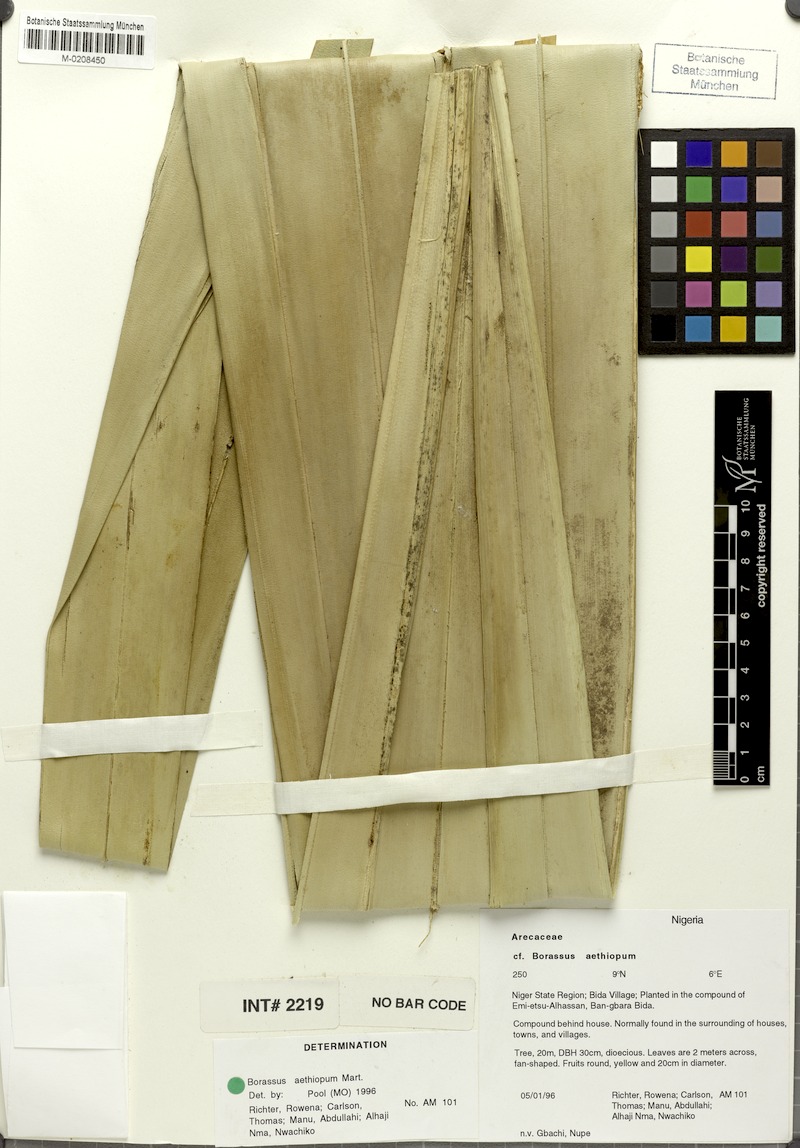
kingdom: Plantae
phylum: Tracheophyta
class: Liliopsida
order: Arecales
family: Arecaceae
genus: Borassus
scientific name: Borassus aethiopum
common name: Elephant palm
